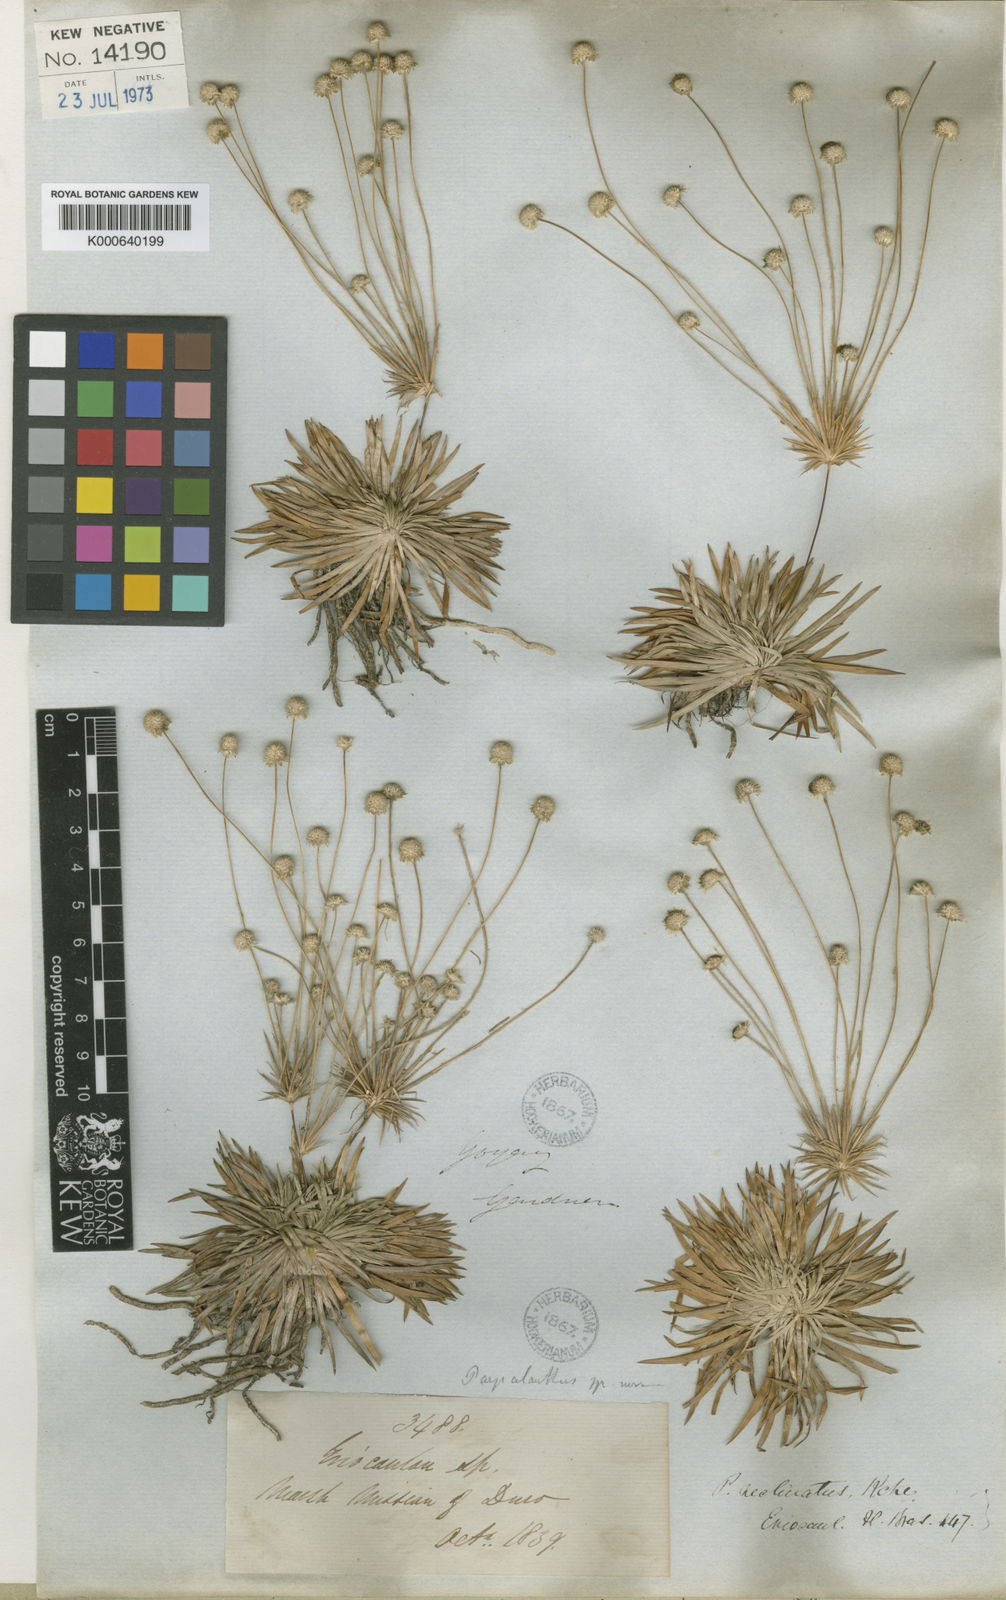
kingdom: Plantae
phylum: Tracheophyta
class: Liliopsida
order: Poales
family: Eriocaulaceae
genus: Syngonanthus
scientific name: Syngonanthus
